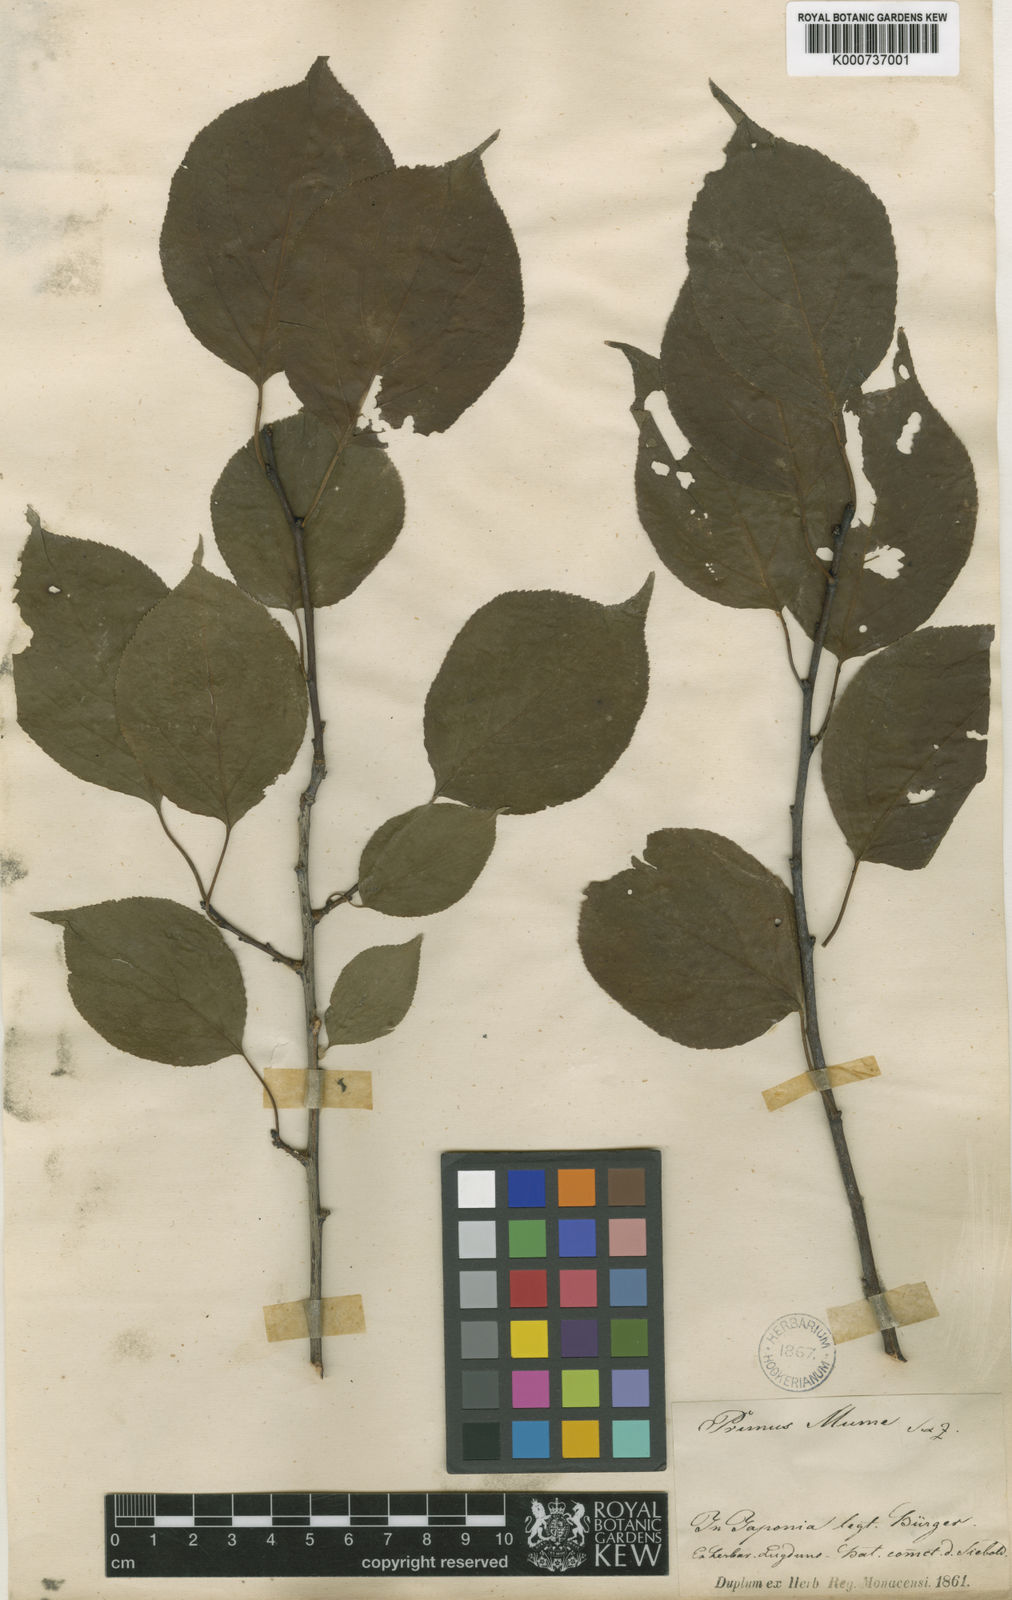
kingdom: Plantae
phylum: Tracheophyta
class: Magnoliopsida
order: Rosales
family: Rosaceae
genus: Prunus
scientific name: Prunus mume
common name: Japanese apricot
